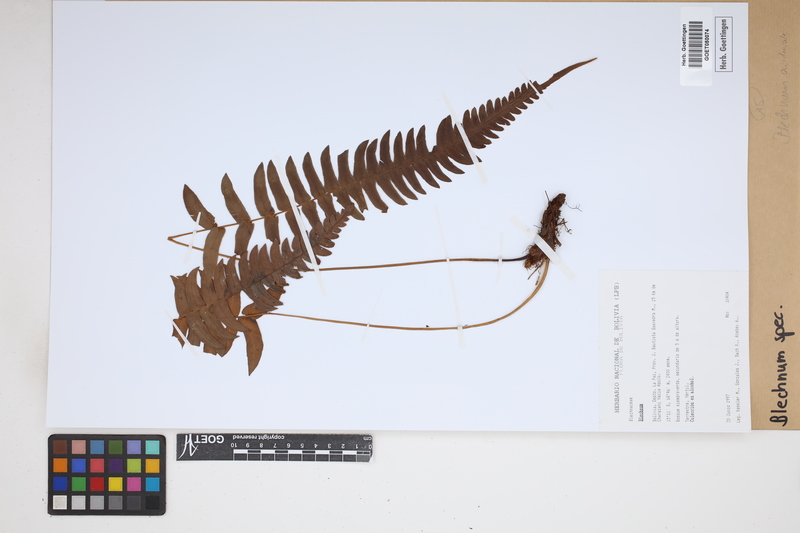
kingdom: Plantae
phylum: Tracheophyta
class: Polypodiopsida
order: Polypodiales
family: Blechnaceae
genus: Blechnum
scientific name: Blechnum
